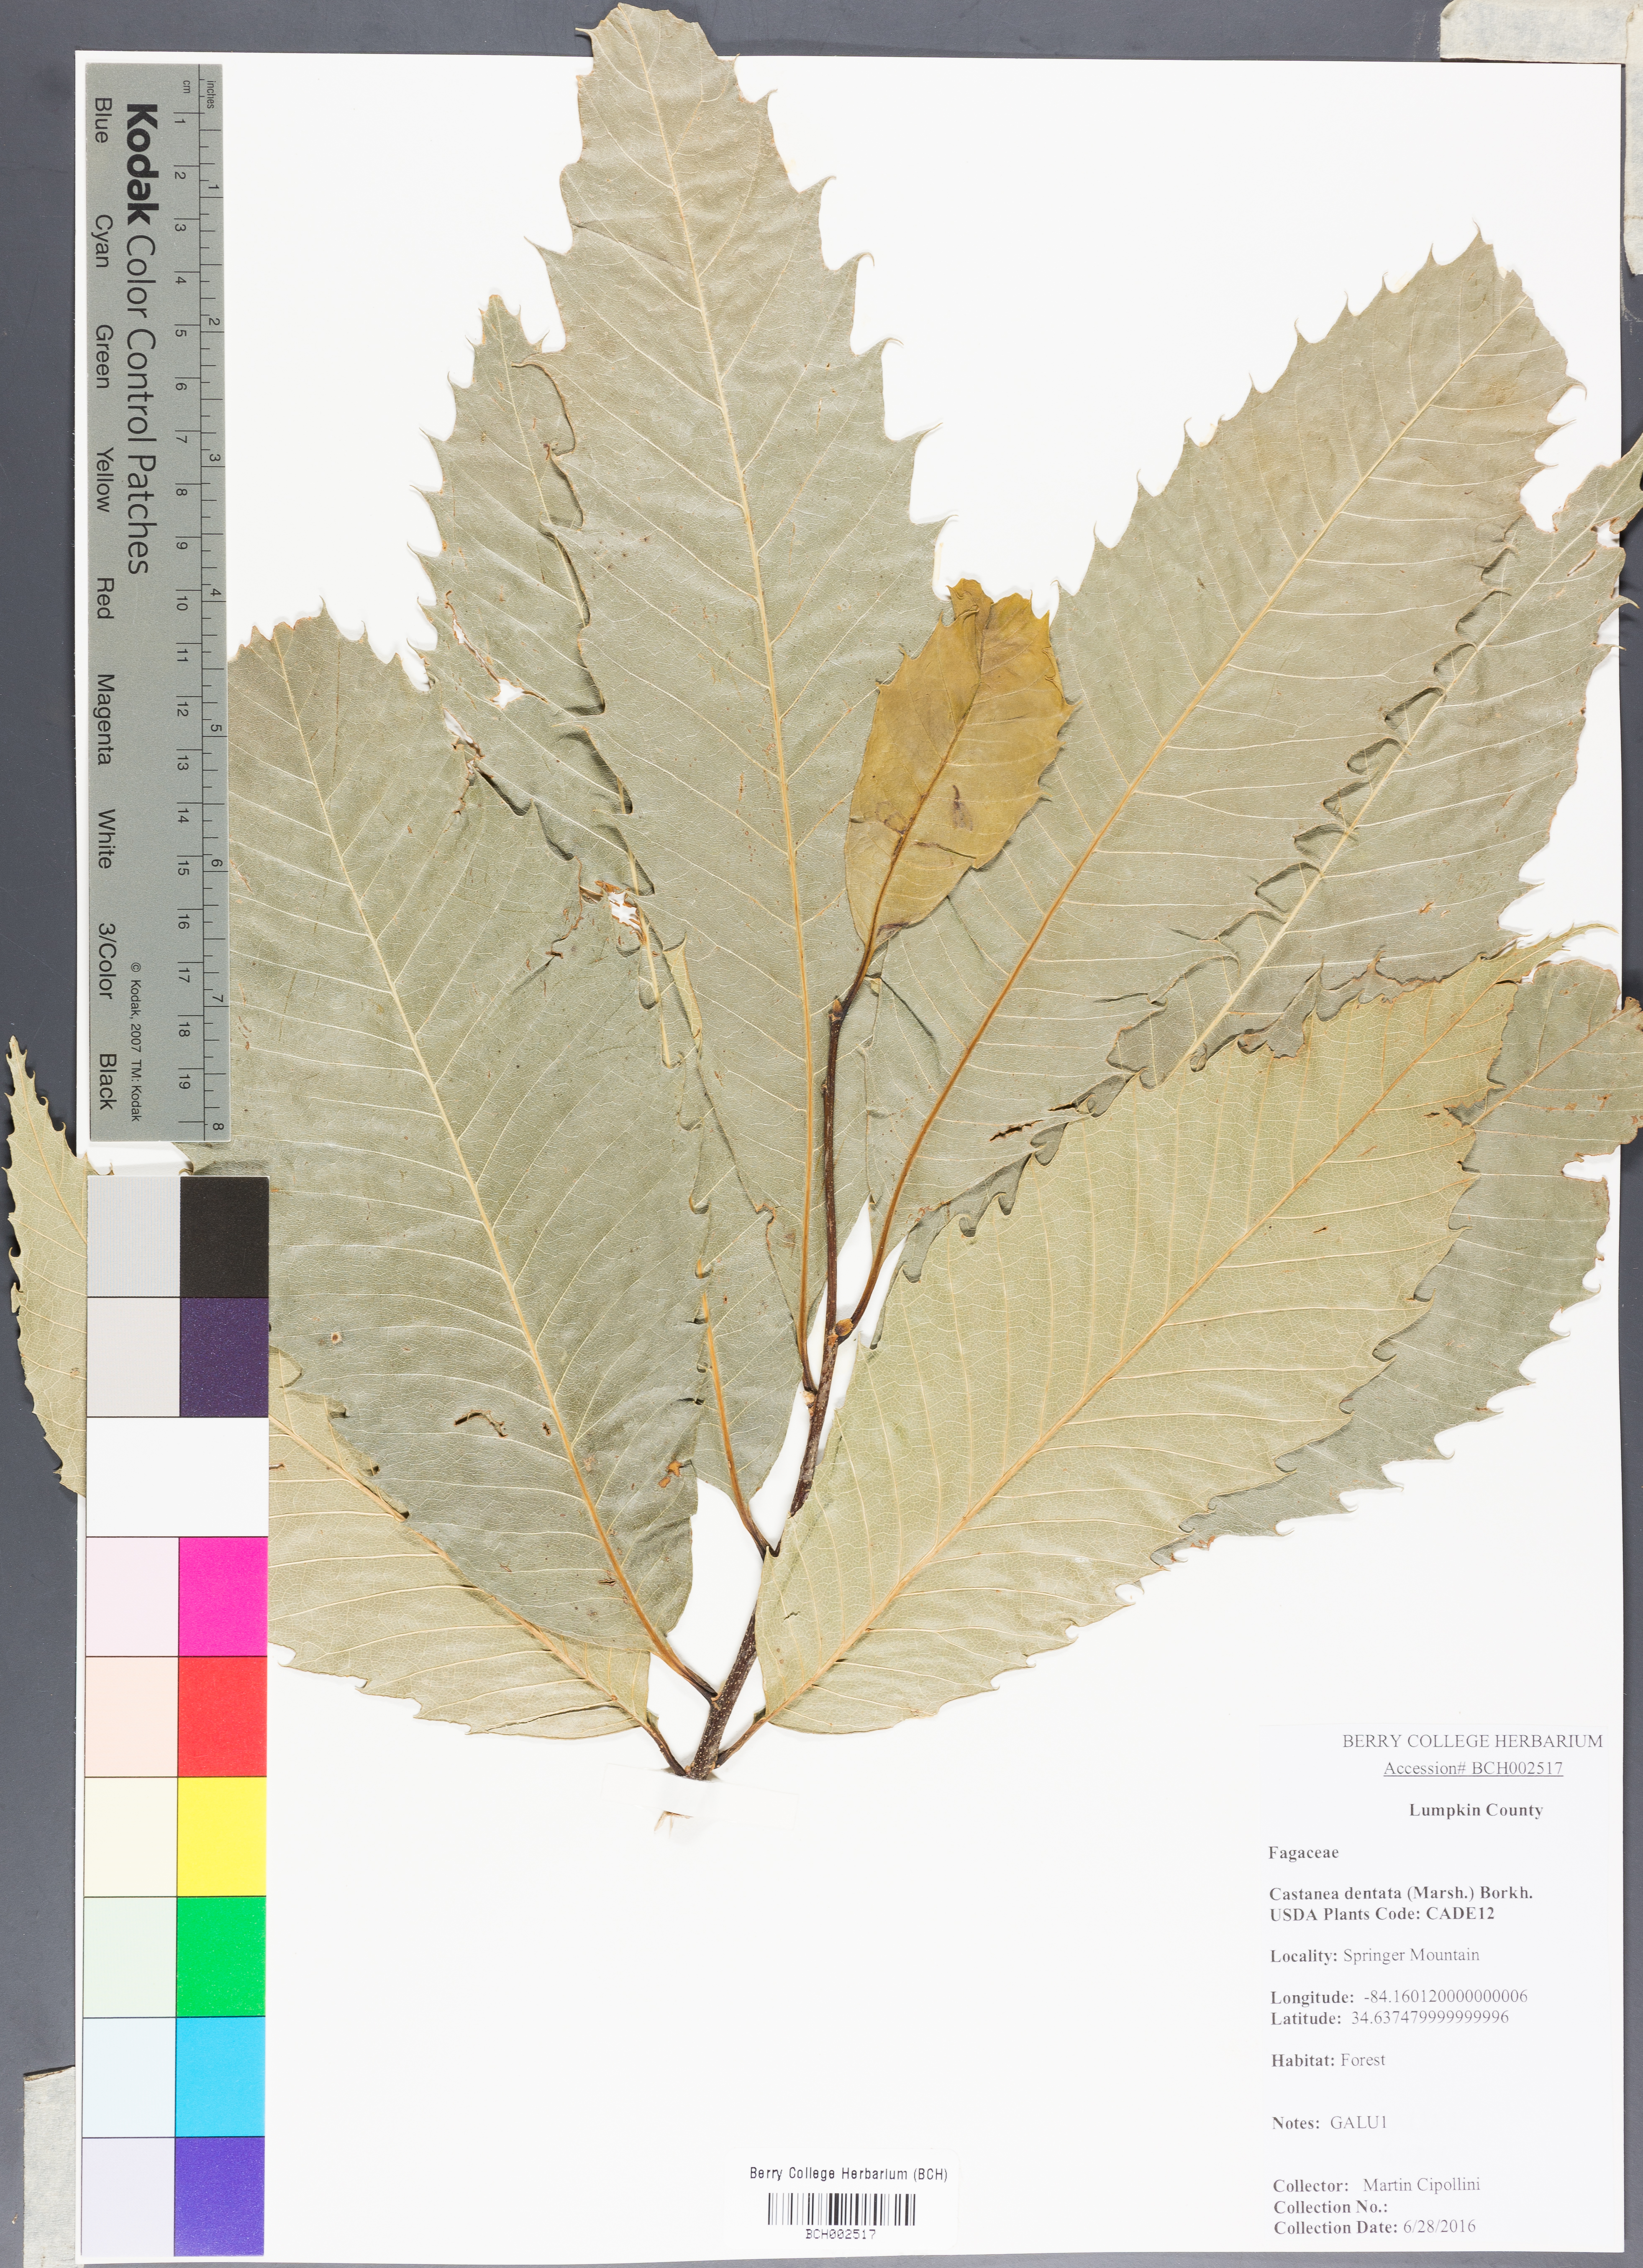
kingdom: Plantae
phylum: Tracheophyta
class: Magnoliopsida
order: Fagales
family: Fagaceae
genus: Castanea
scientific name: Castanea dentata
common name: American chestnut
